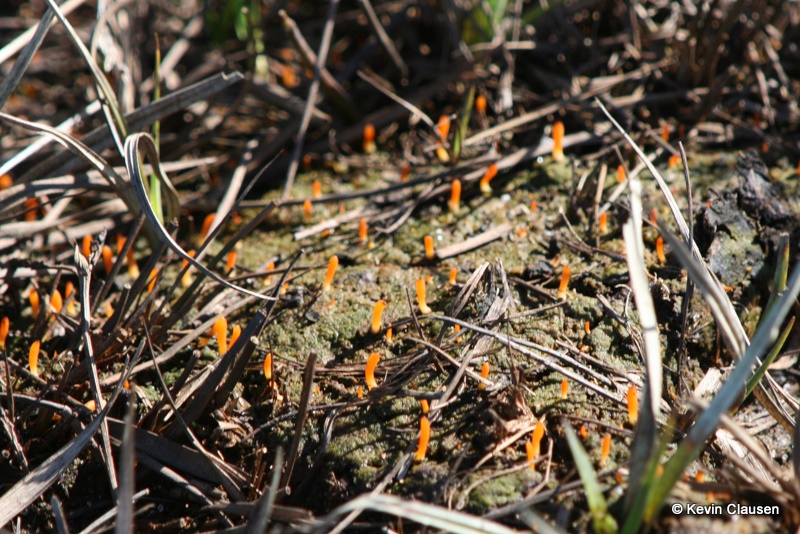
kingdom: Fungi
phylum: Basidiomycota
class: Agaricomycetes
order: Cantharellales
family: Hydnaceae
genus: Multiclavula
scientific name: Multiclavula vernalis
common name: abrikos-lavkølle
